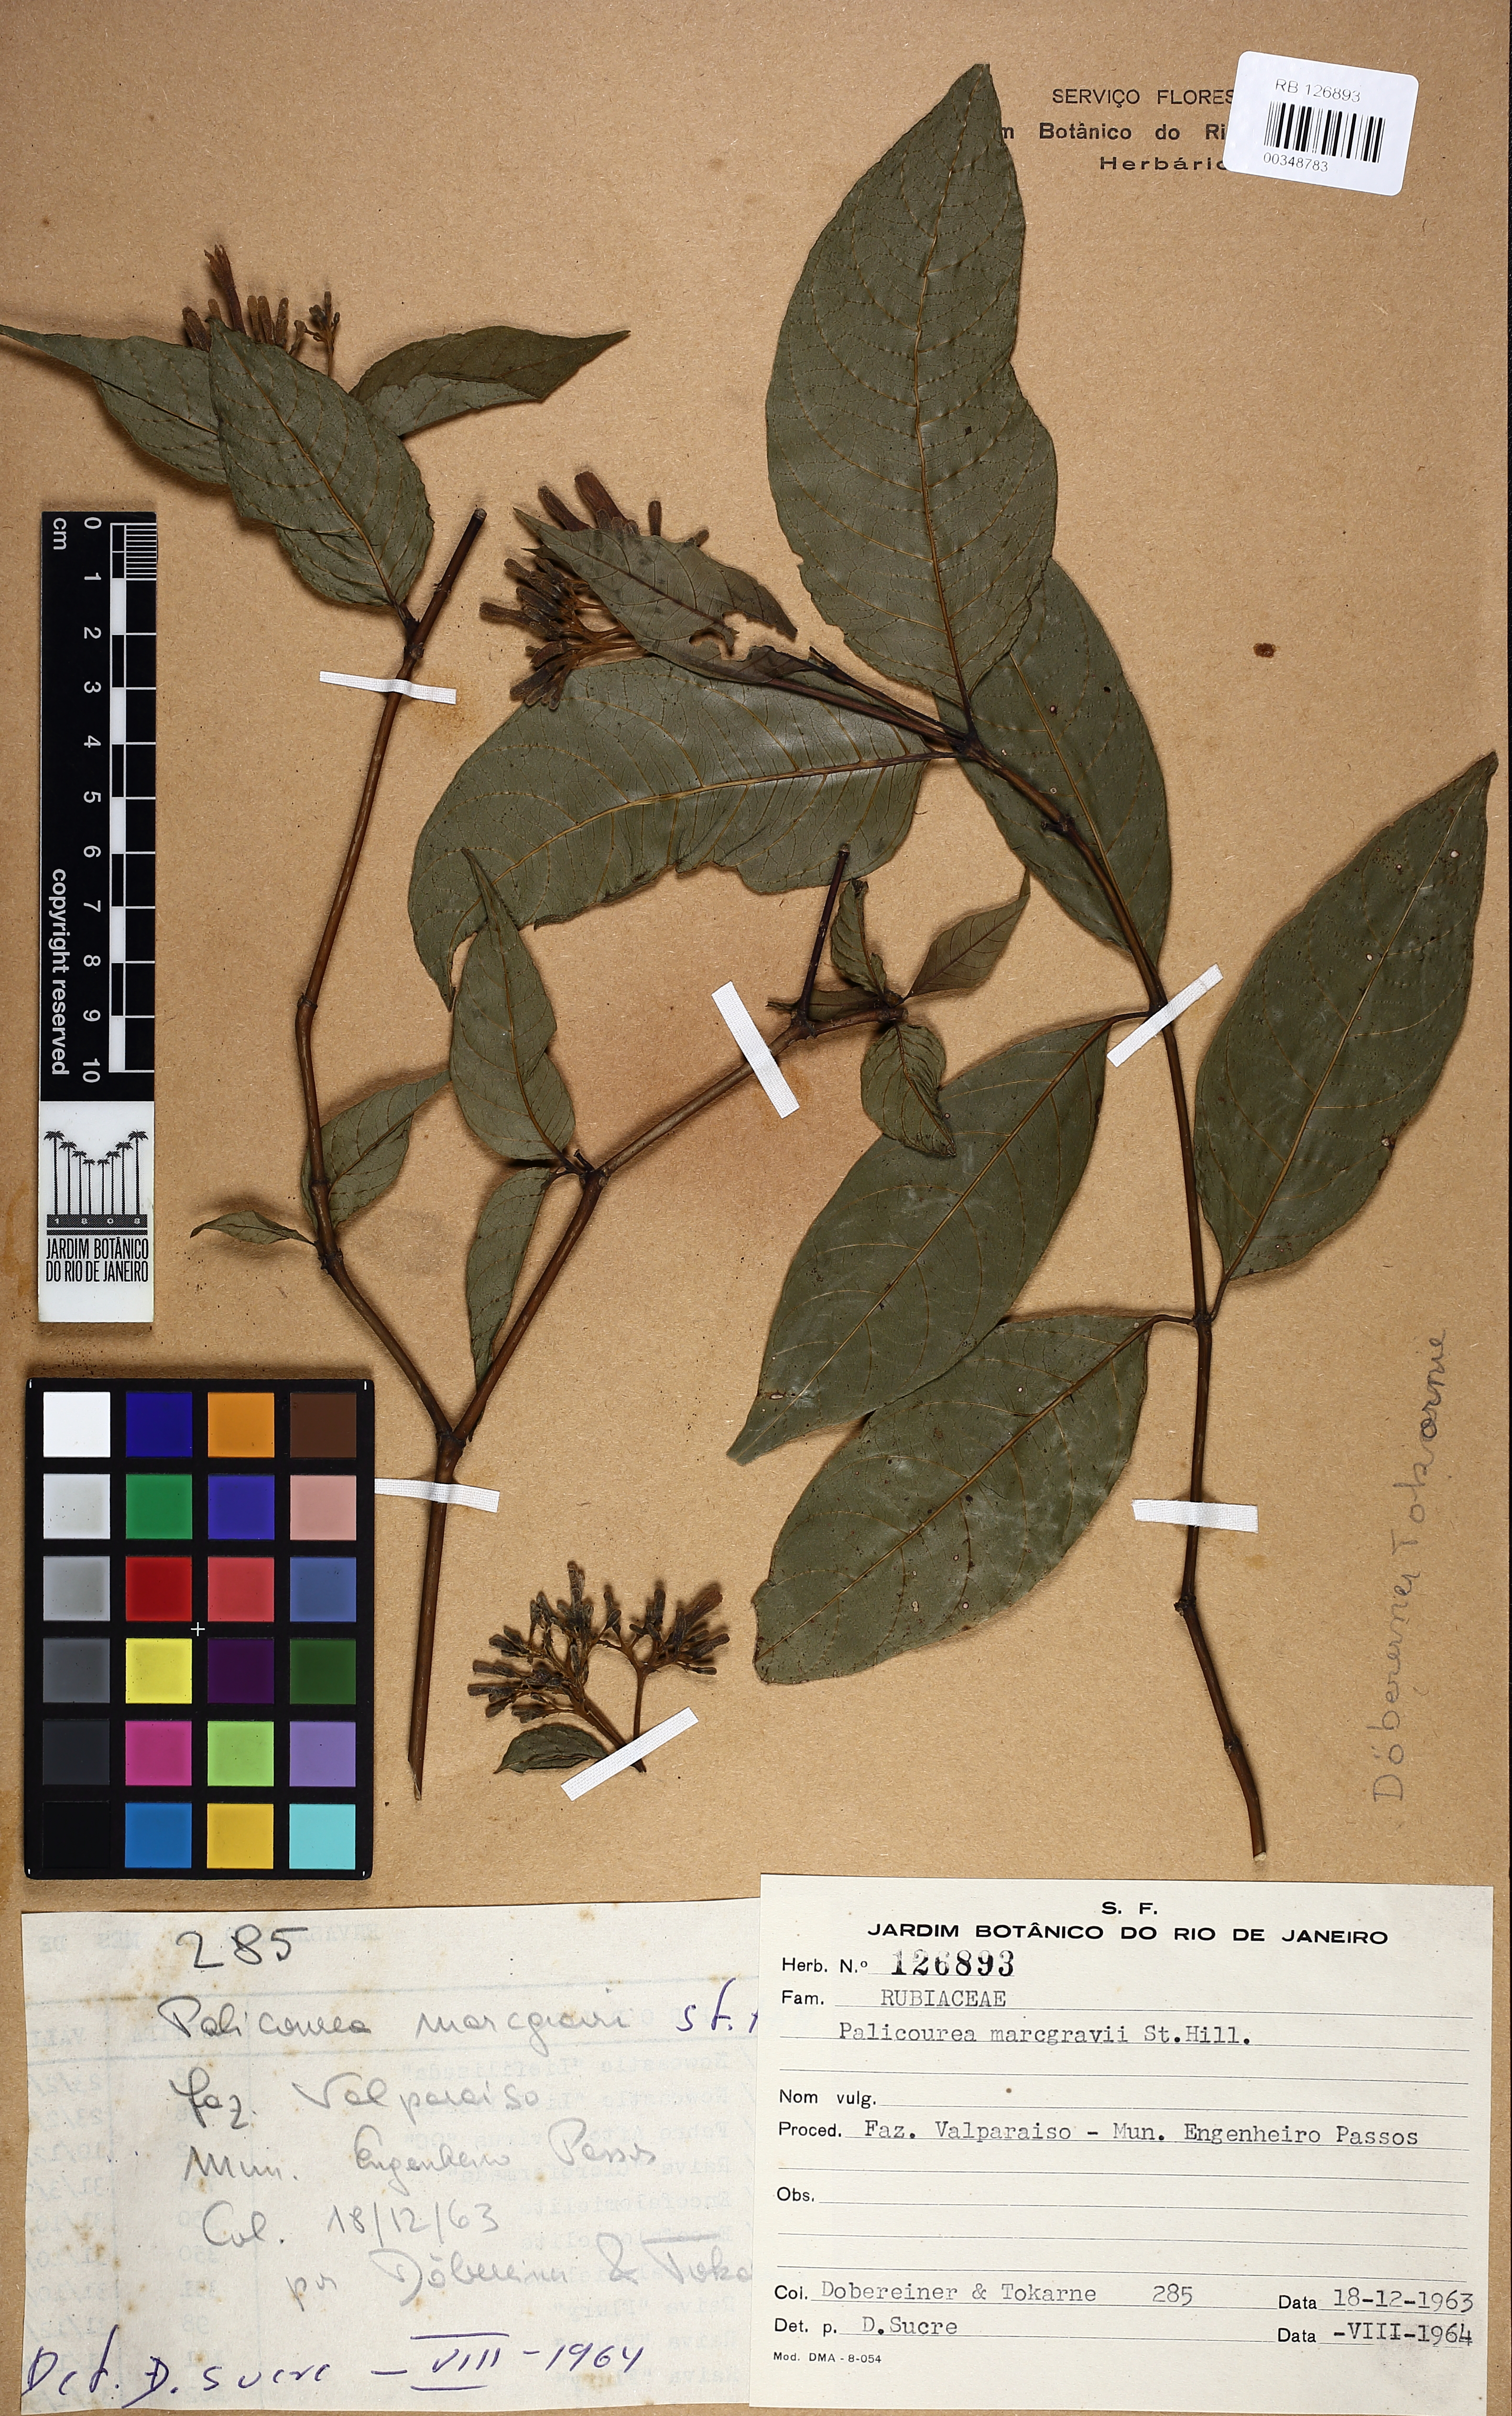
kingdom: Plantae
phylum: Tracheophyta
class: Magnoliopsida
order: Gentianales
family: Rubiaceae
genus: Palicourea
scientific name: Palicourea marcgravii
